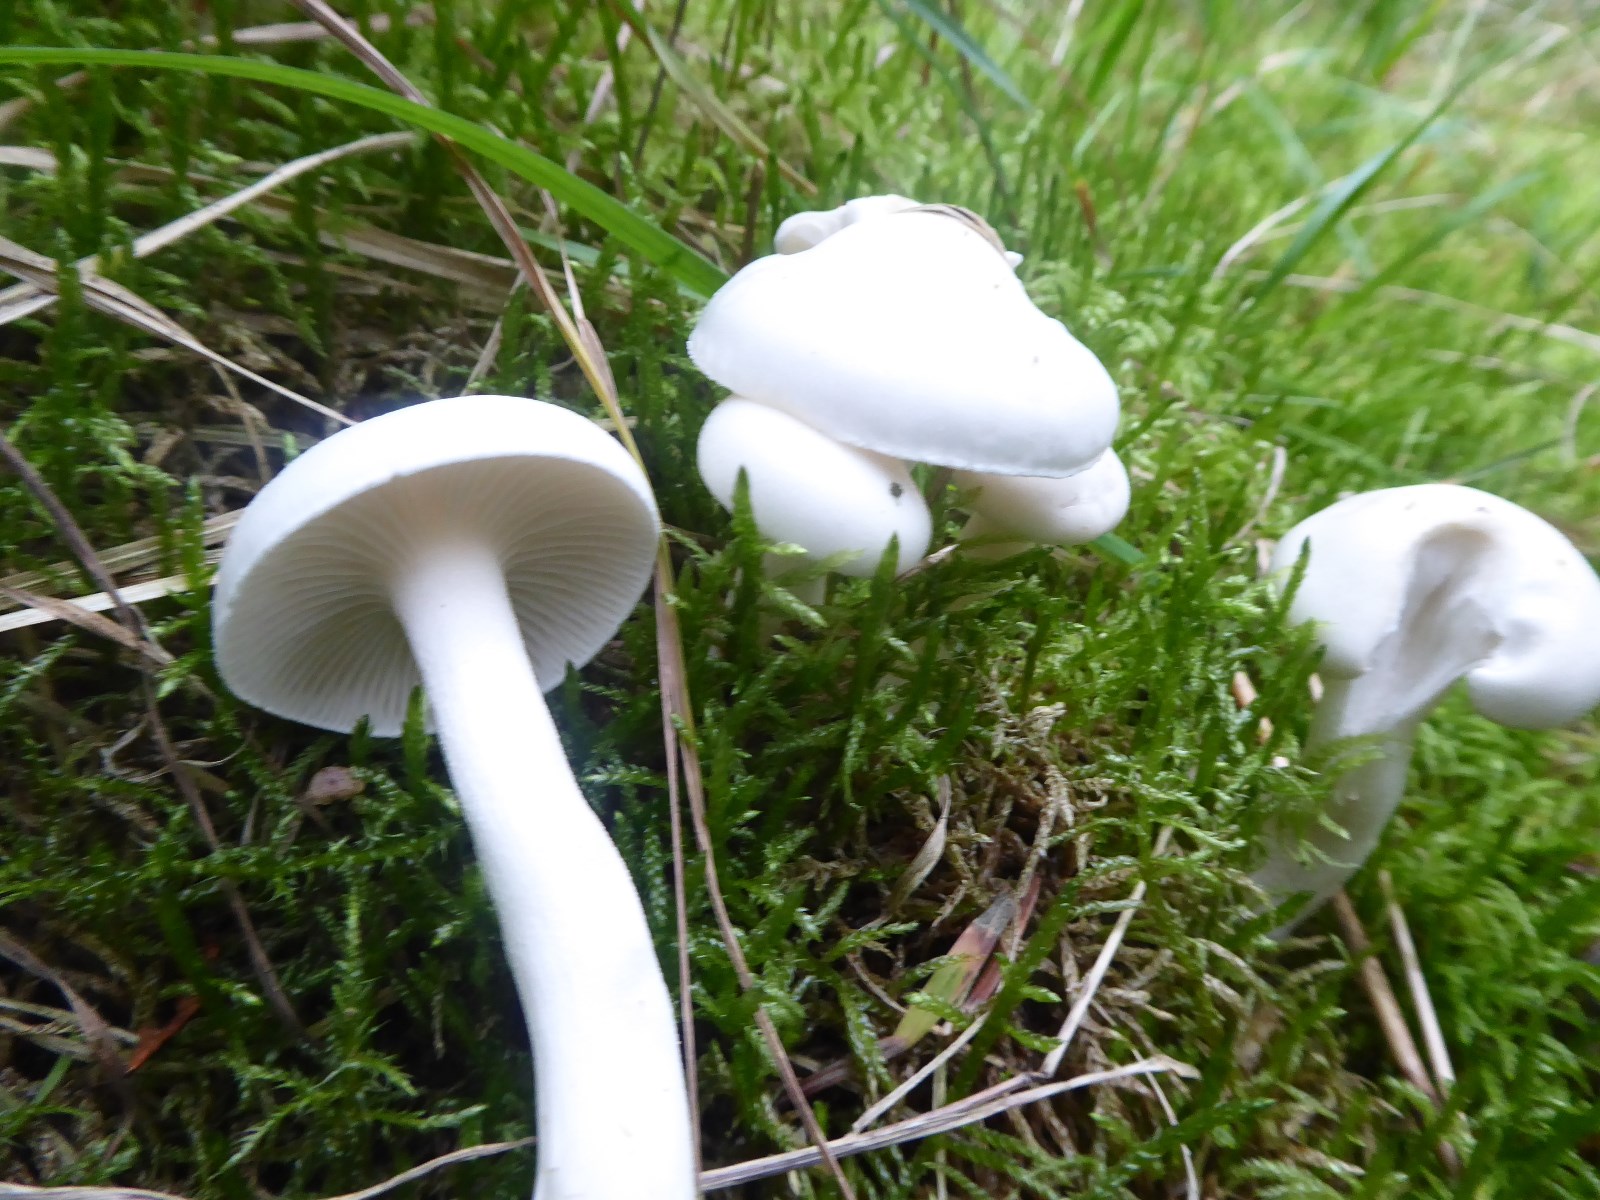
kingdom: Fungi
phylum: Basidiomycota
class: Agaricomycetes
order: Agaricales
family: Hygrophoraceae
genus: Hygrophorus
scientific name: Hygrophorus agathosmus
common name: vellugtende sneglehat
